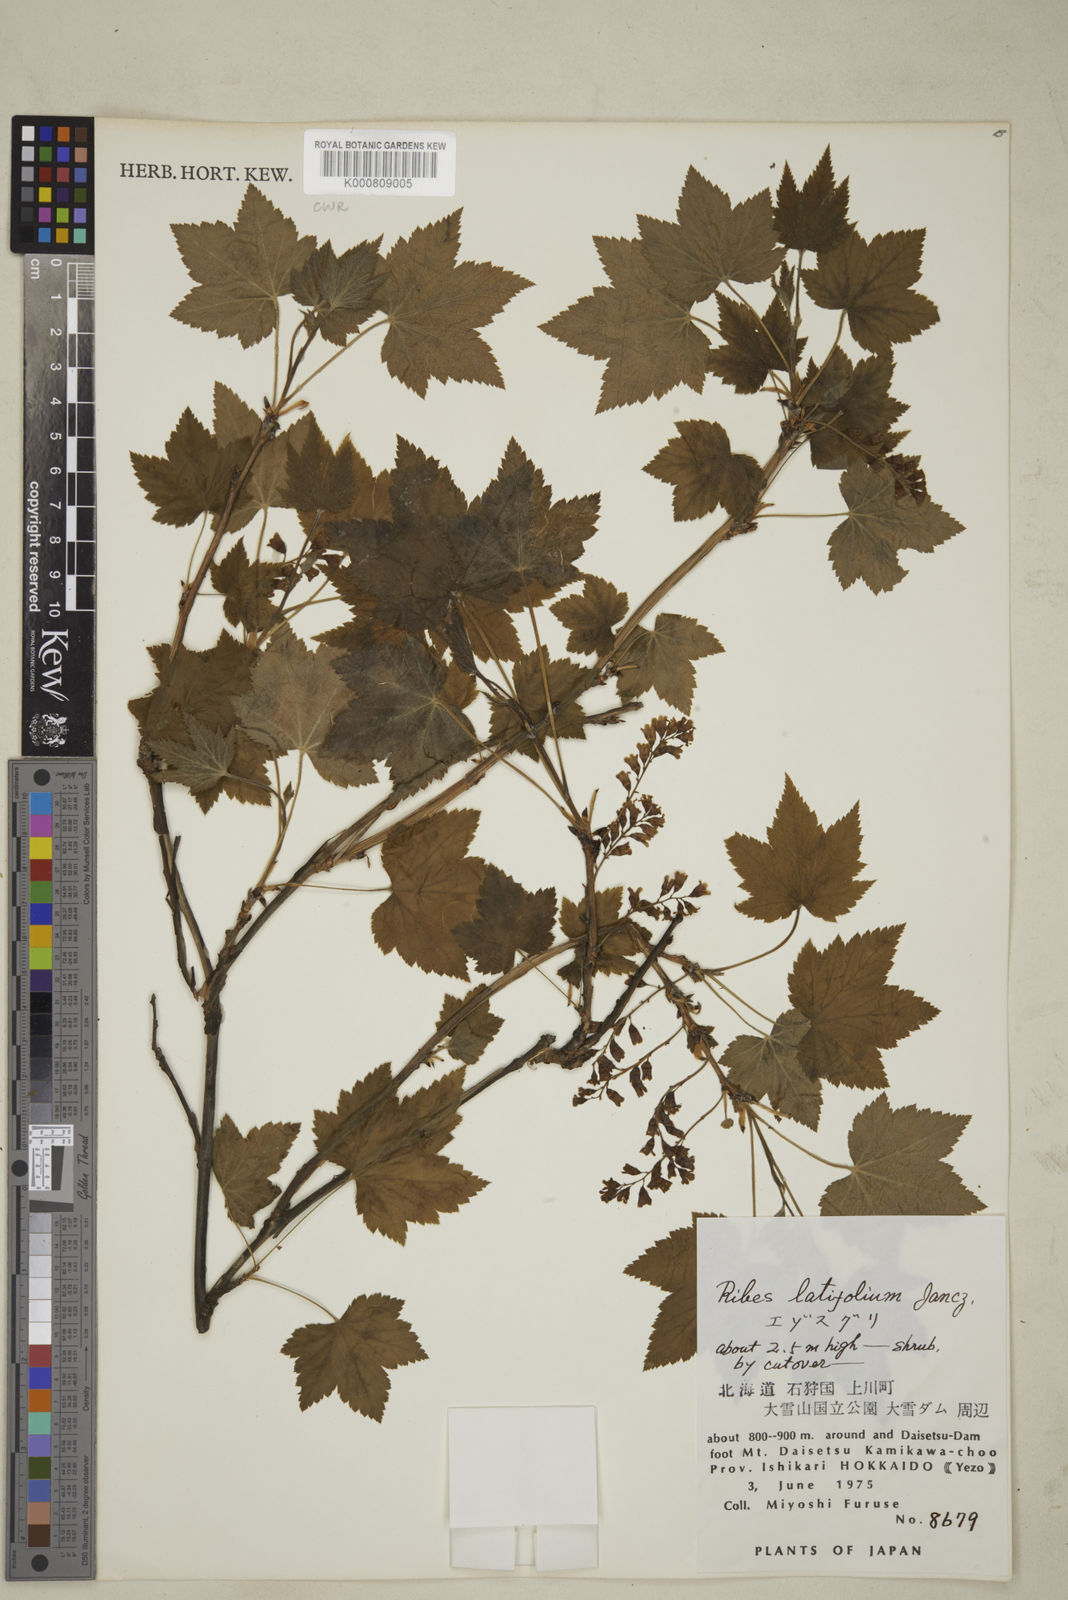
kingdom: Plantae
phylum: Tracheophyta
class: Magnoliopsida
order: Saxifragales
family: Grossulariaceae
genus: Ribes
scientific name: Ribes latifolium
